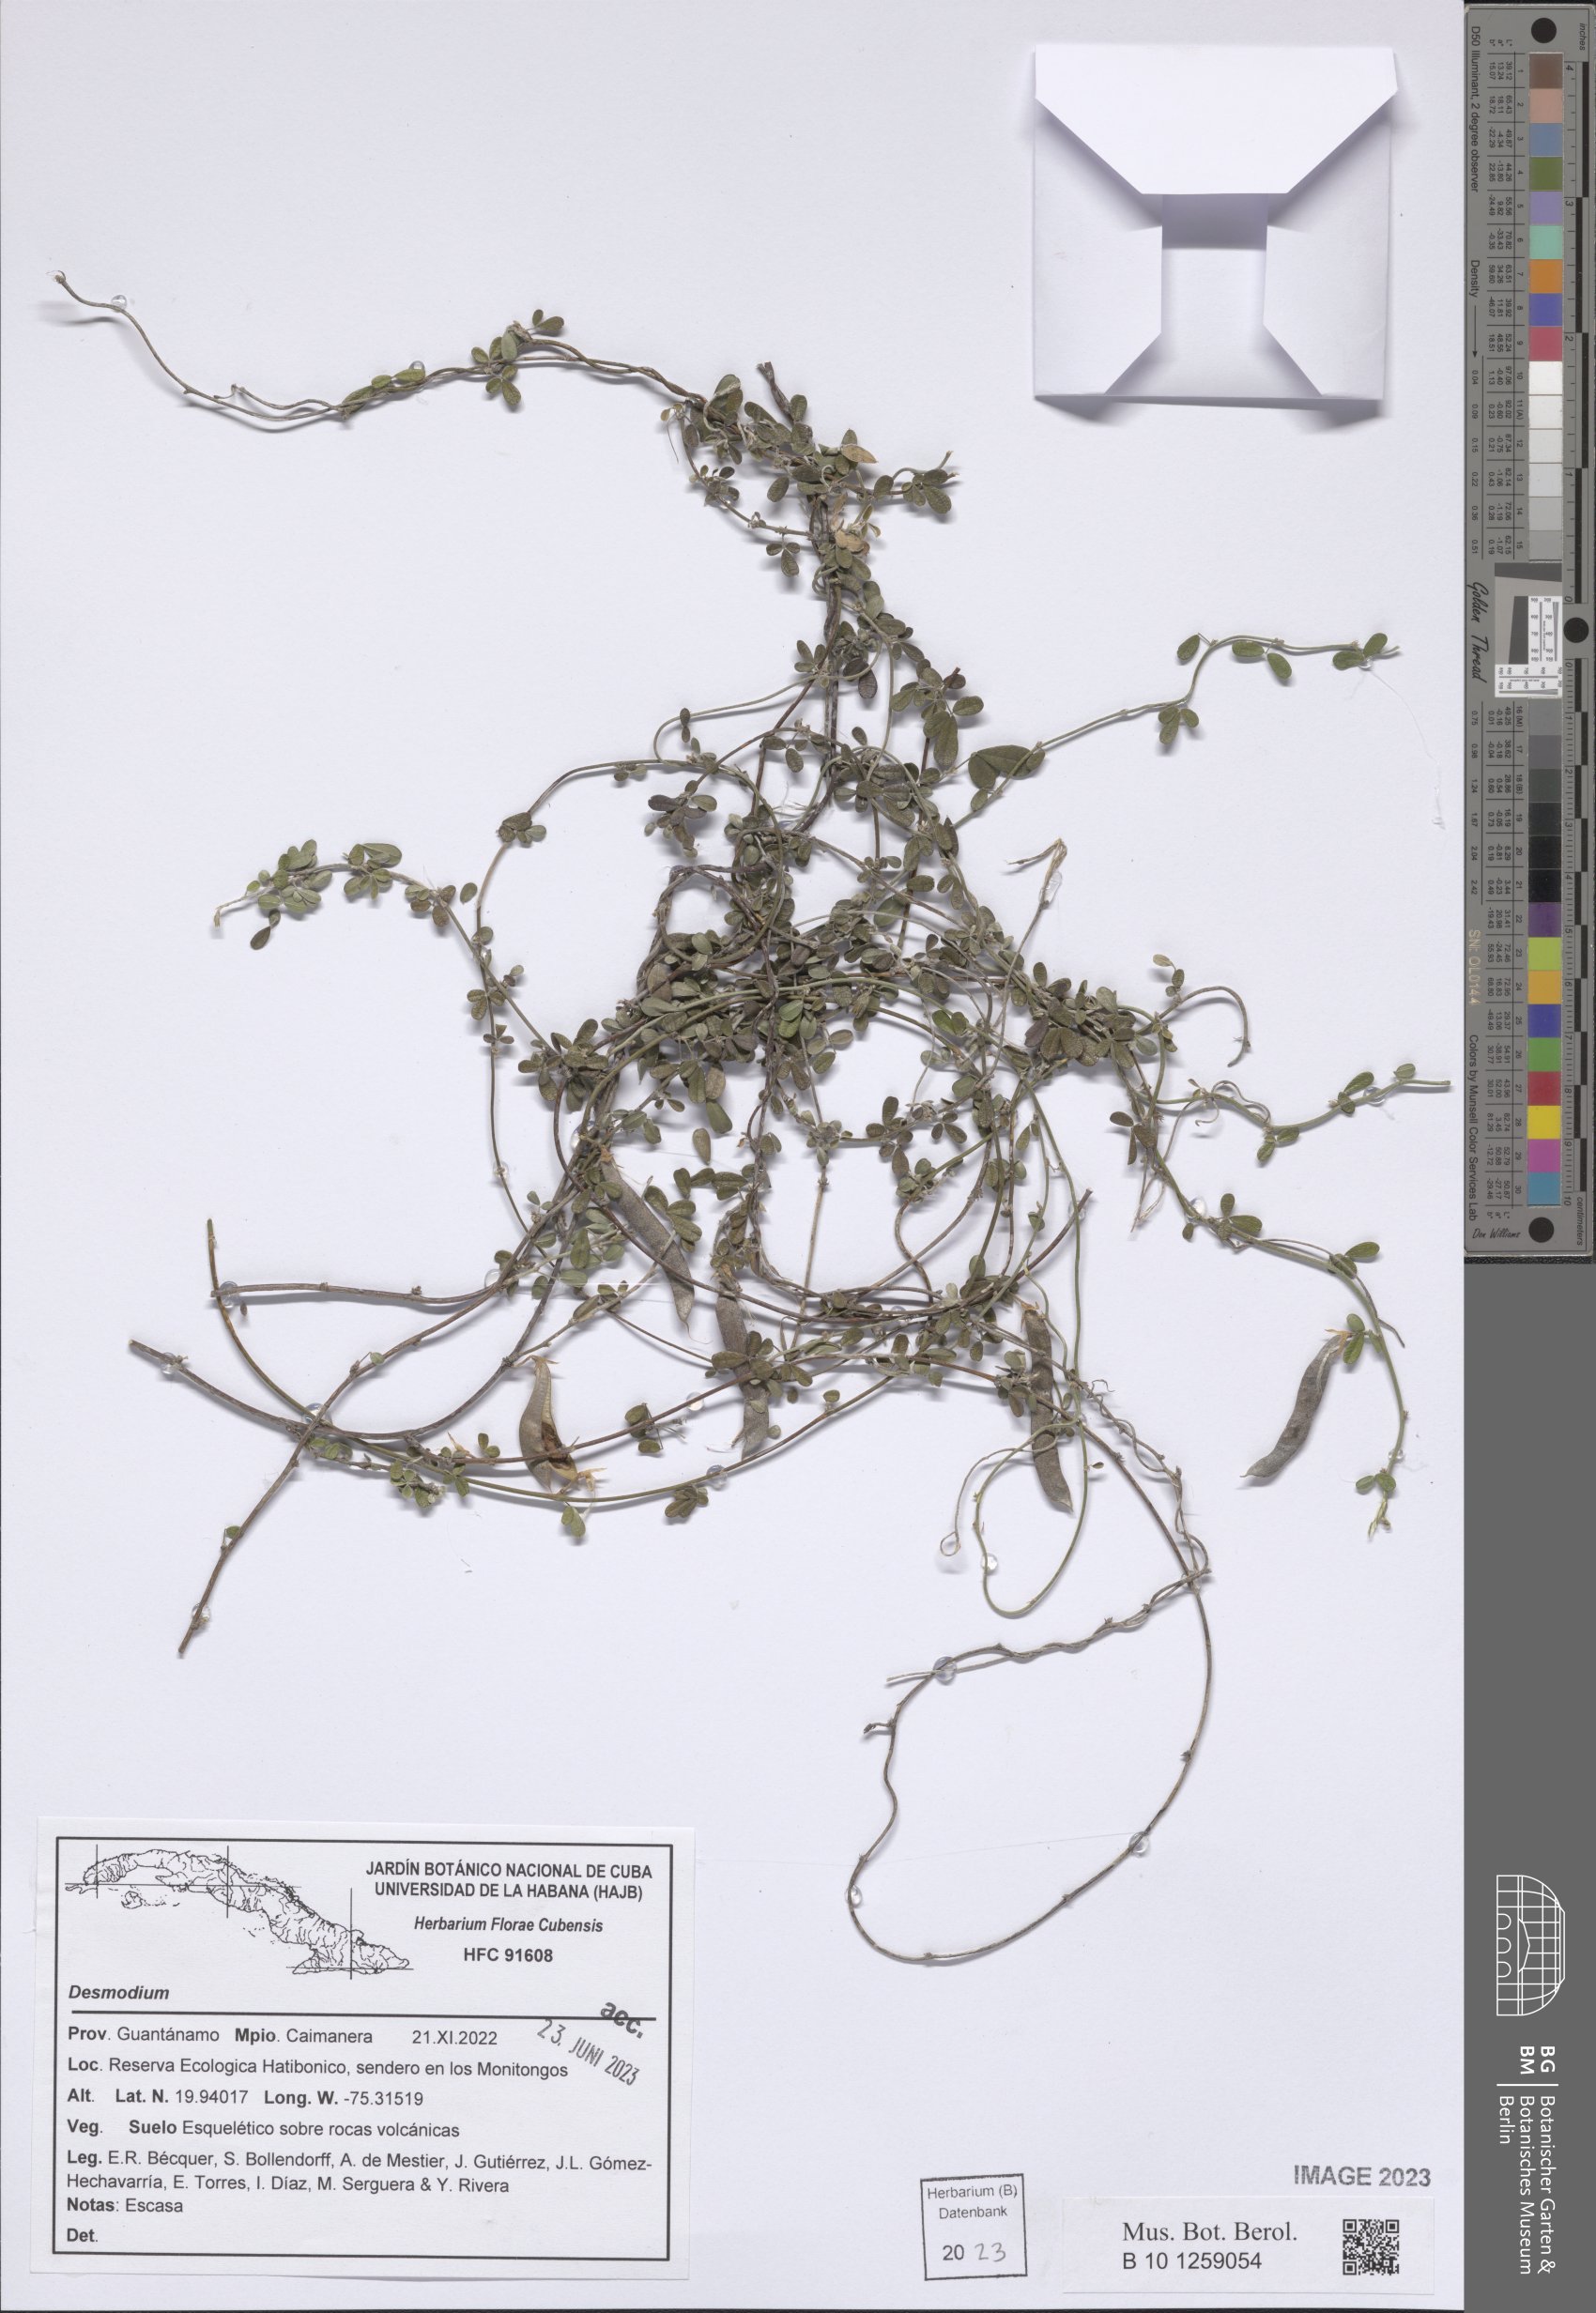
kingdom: Plantae
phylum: Tracheophyta
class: Magnoliopsida
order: Fabales
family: Fabaceae
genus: Desmodium
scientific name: Desmodium
